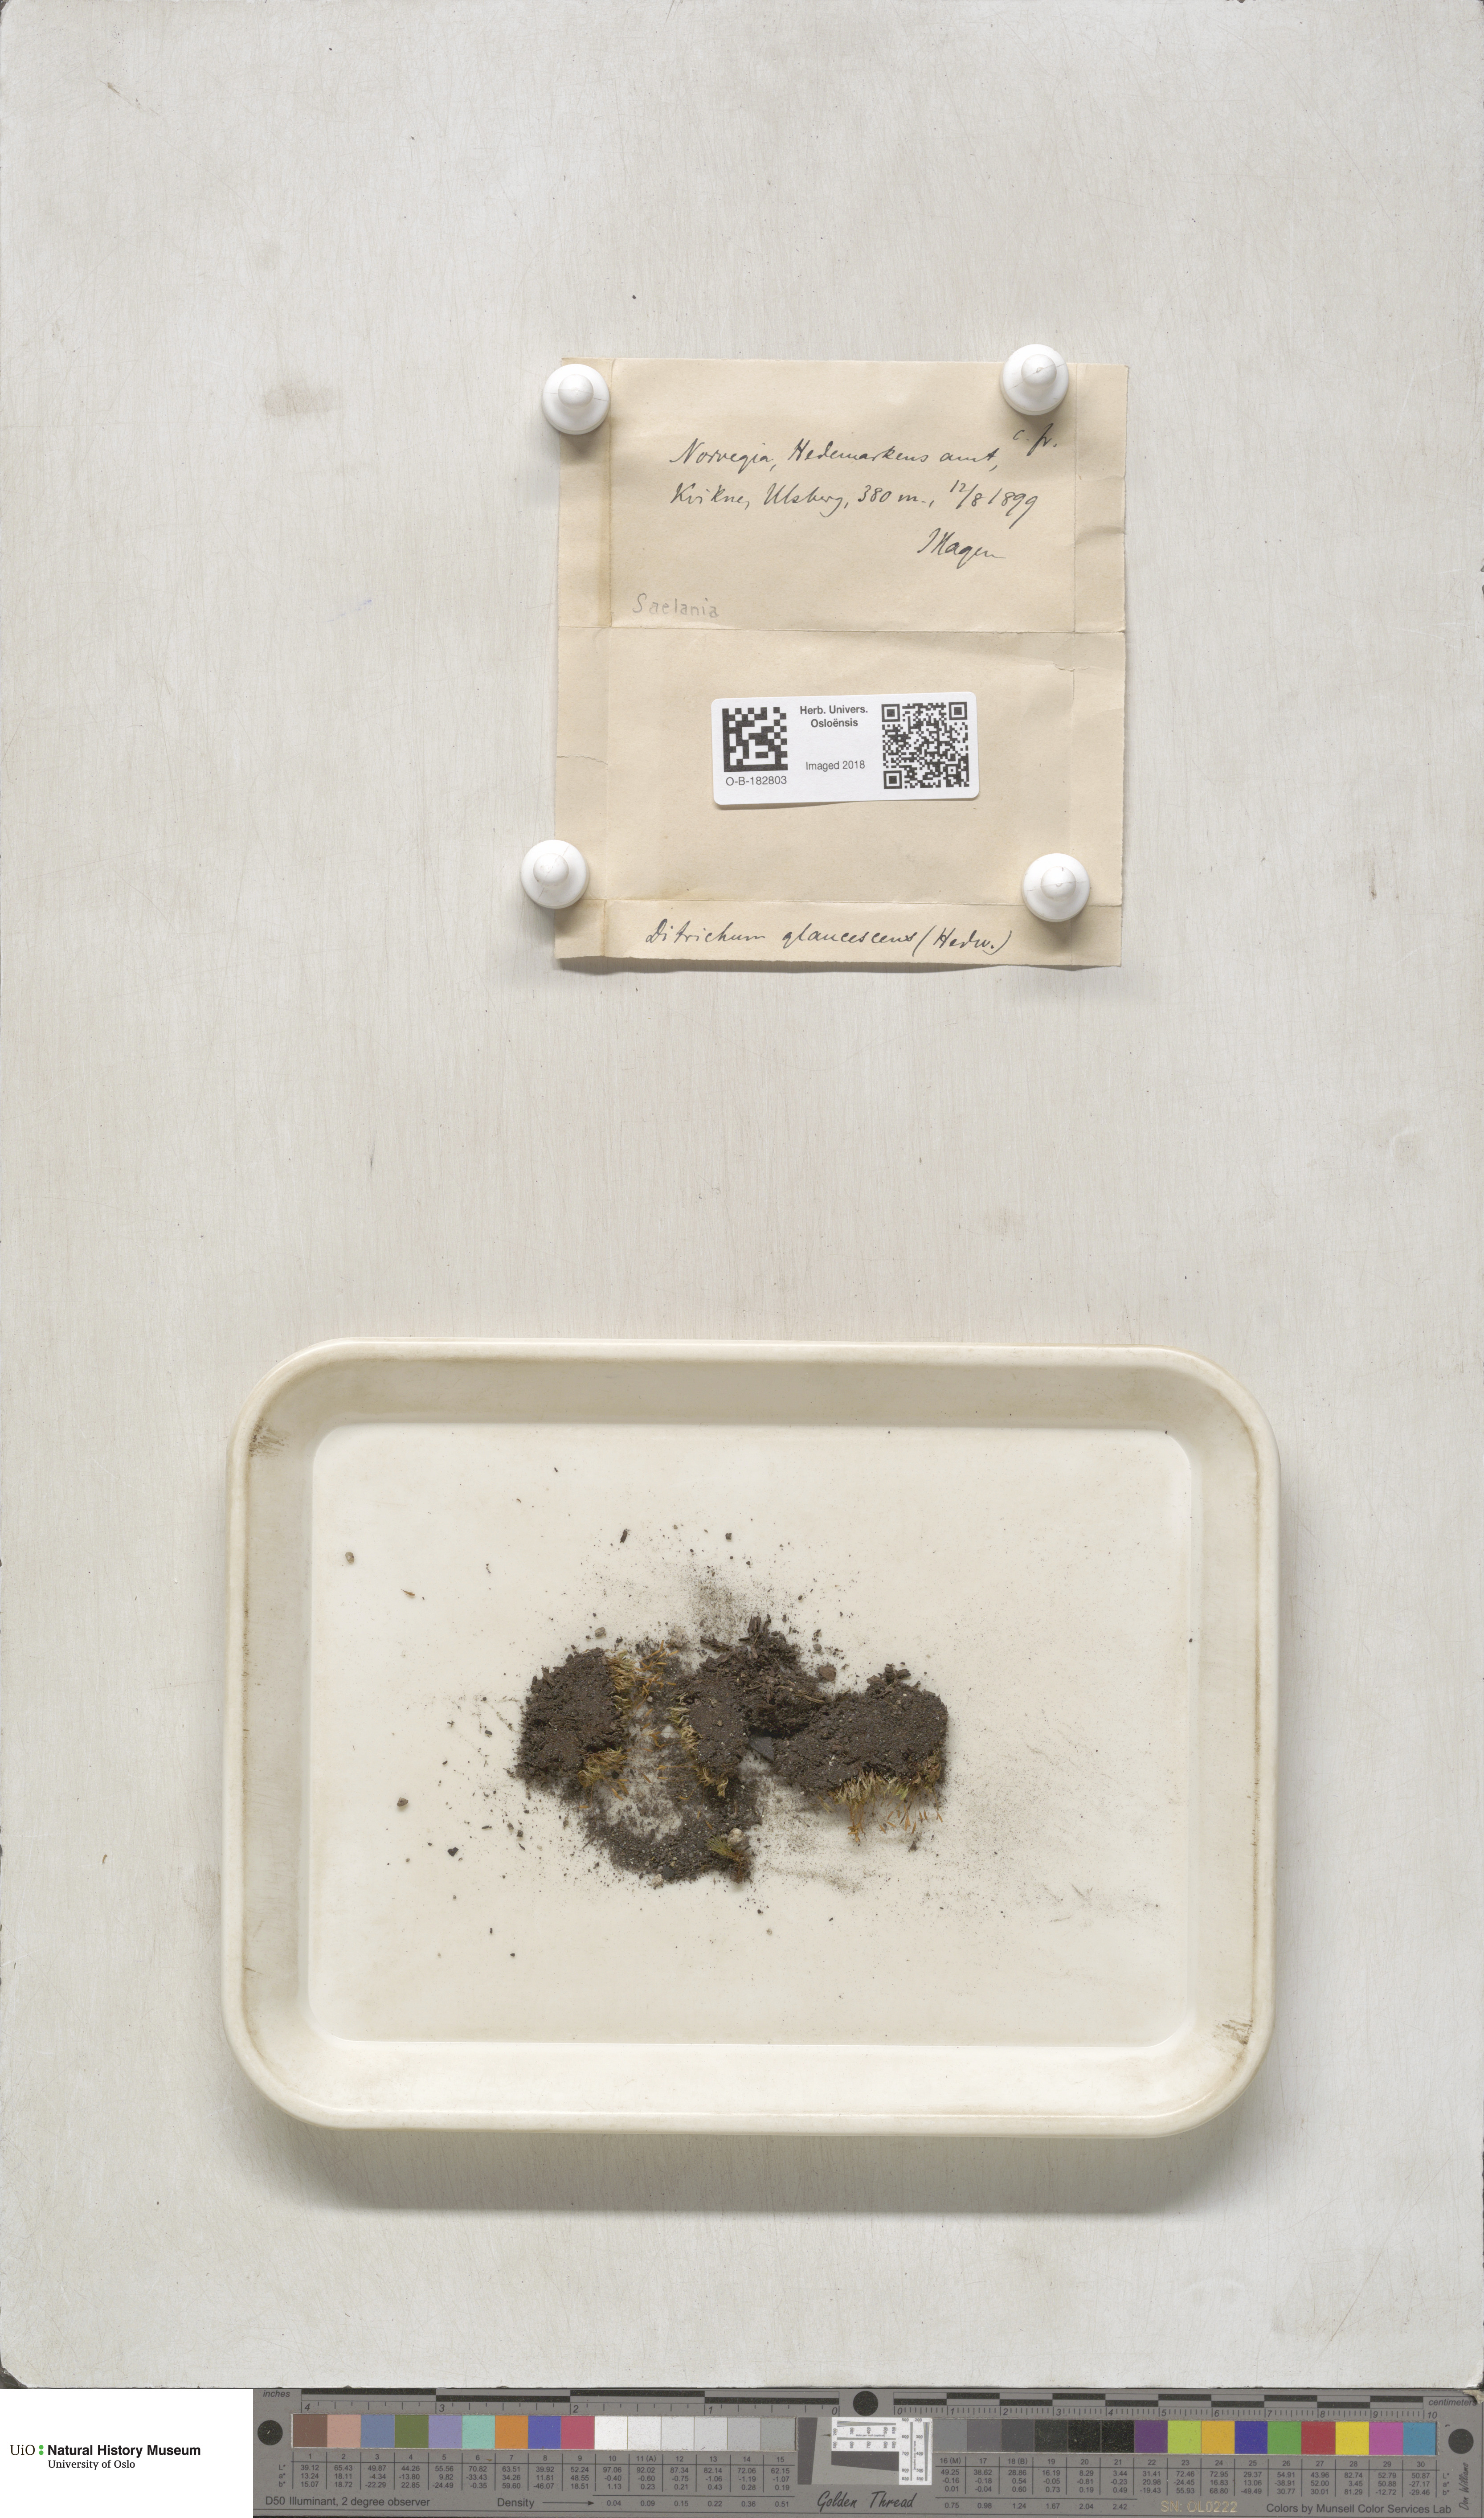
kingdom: Plantae
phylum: Bryophyta
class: Bryopsida
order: Grimmiales
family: Saelaniaceae
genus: Saelania
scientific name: Saelania glaucescens
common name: Blue dew-moss
